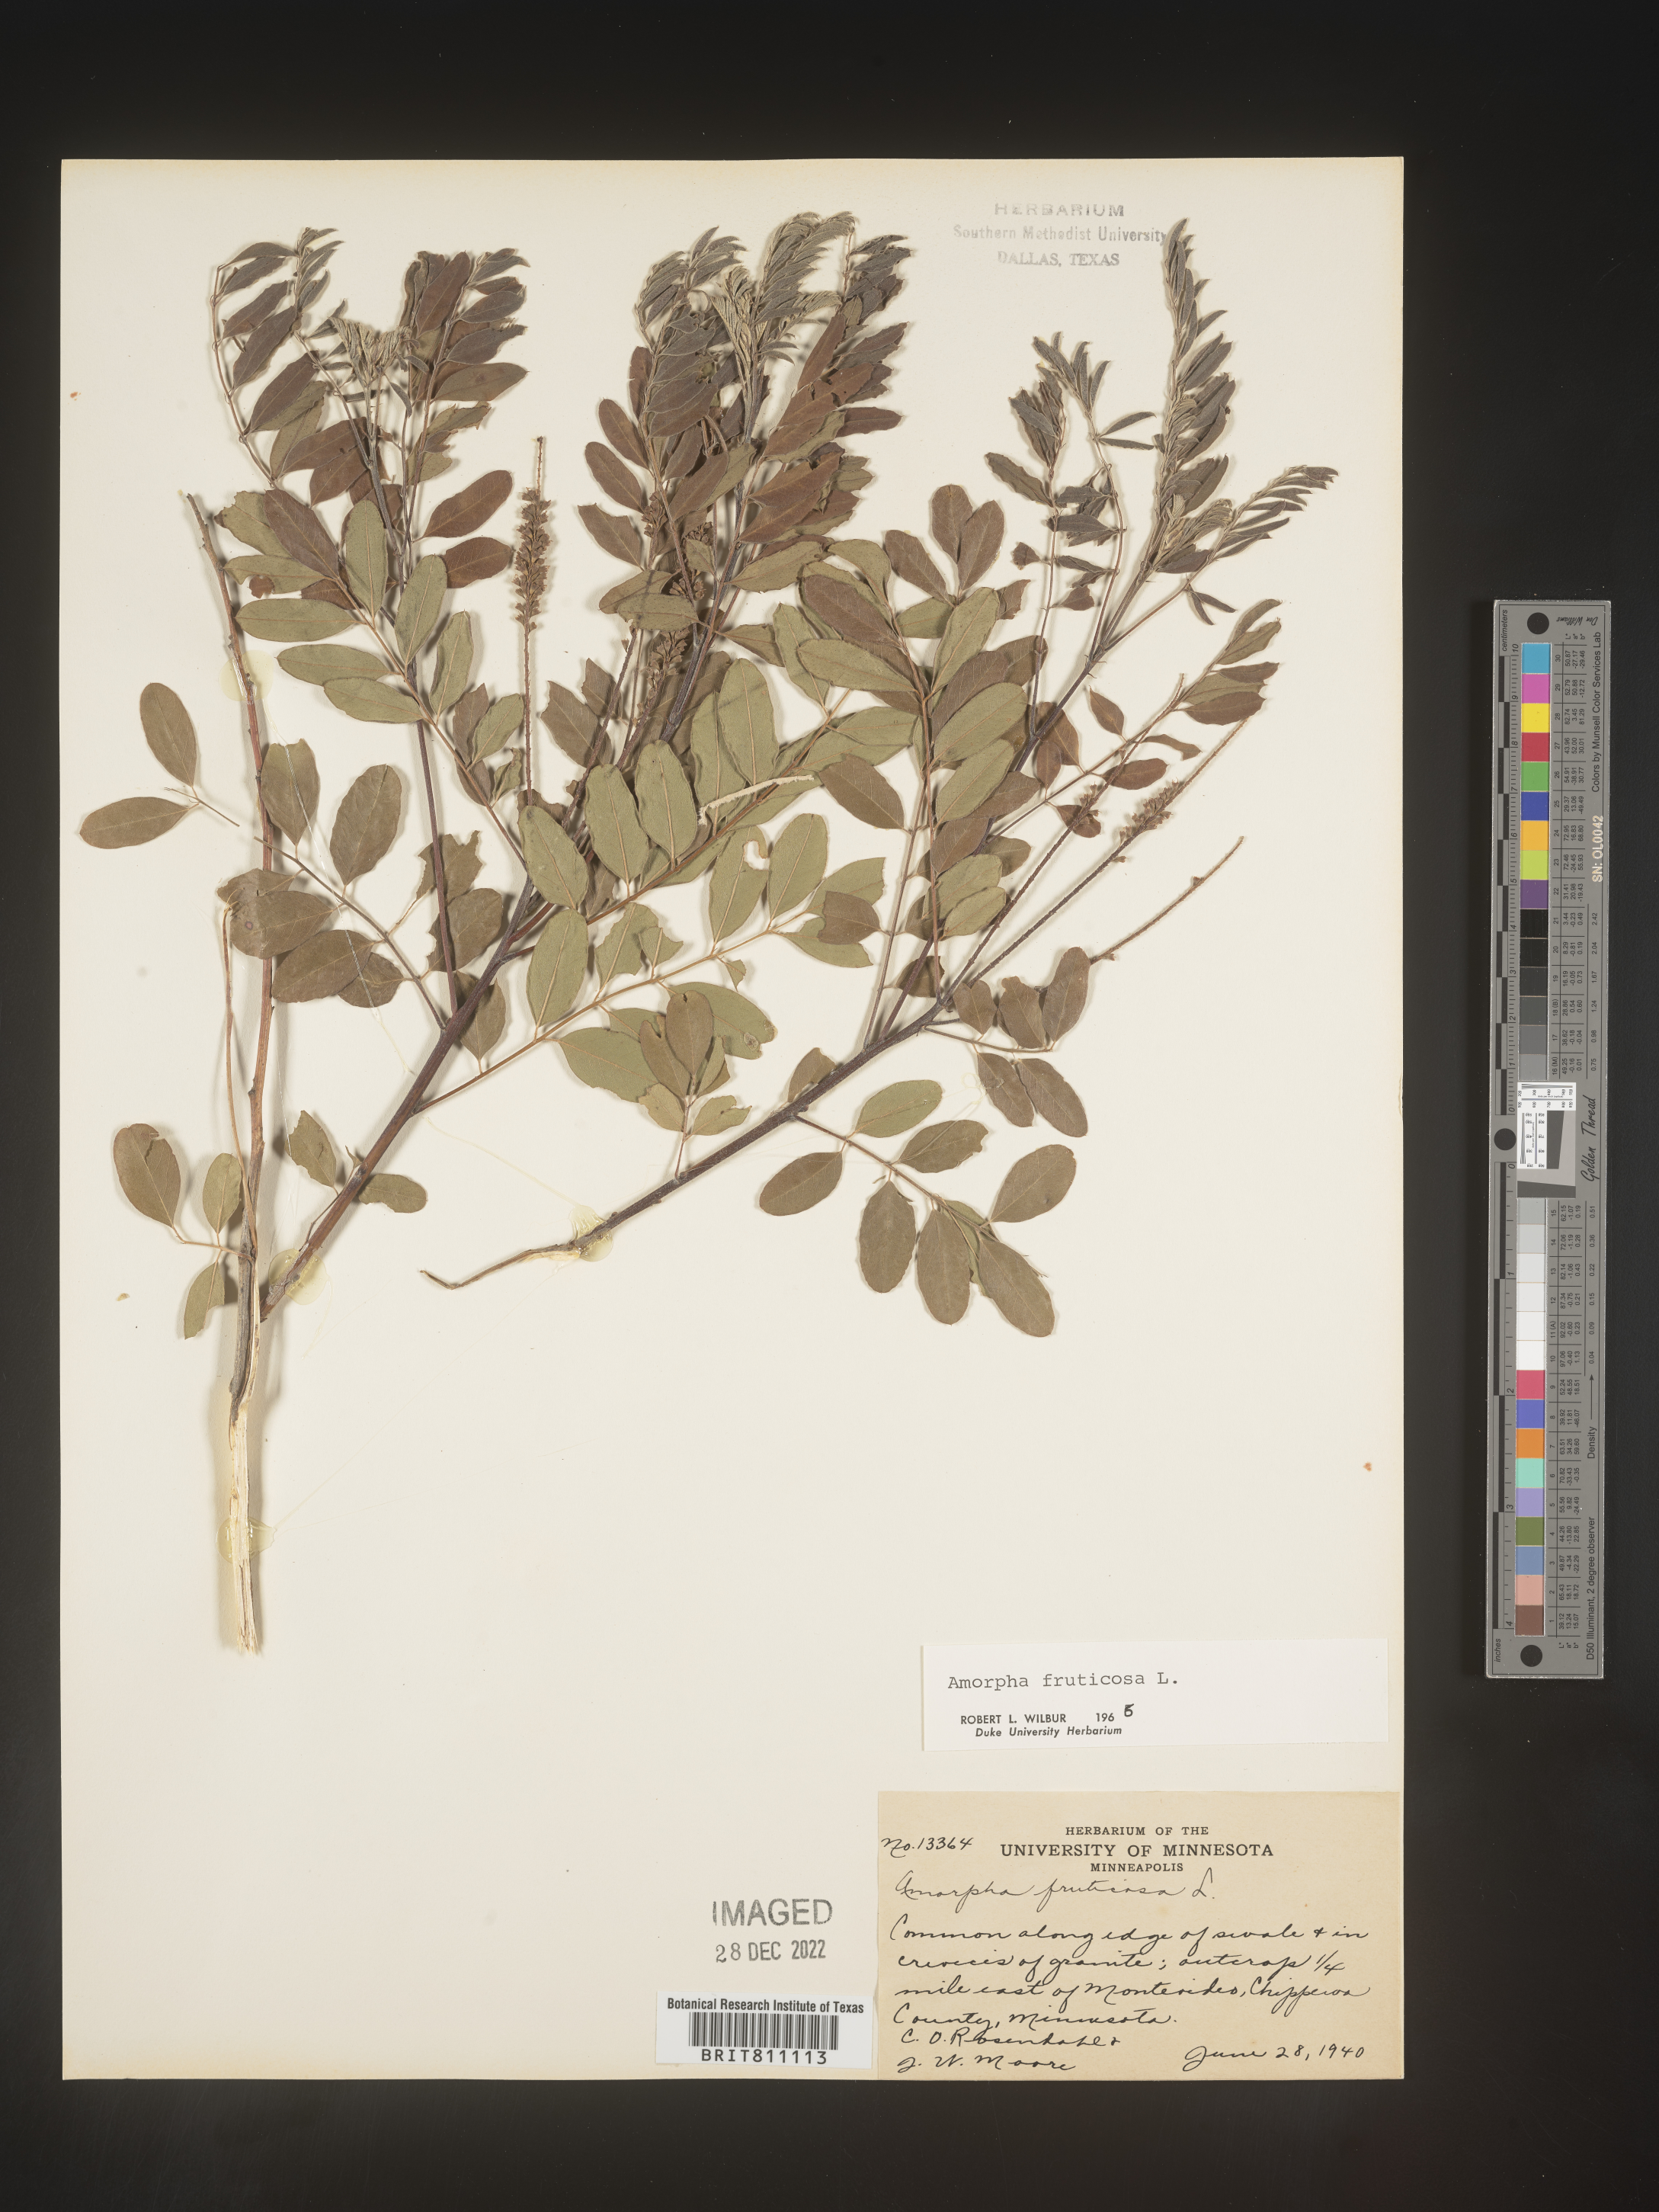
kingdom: Plantae
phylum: Tracheophyta
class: Magnoliopsida
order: Fabales
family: Fabaceae
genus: Amorpha
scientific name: Amorpha fruticosa
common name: False indigo
